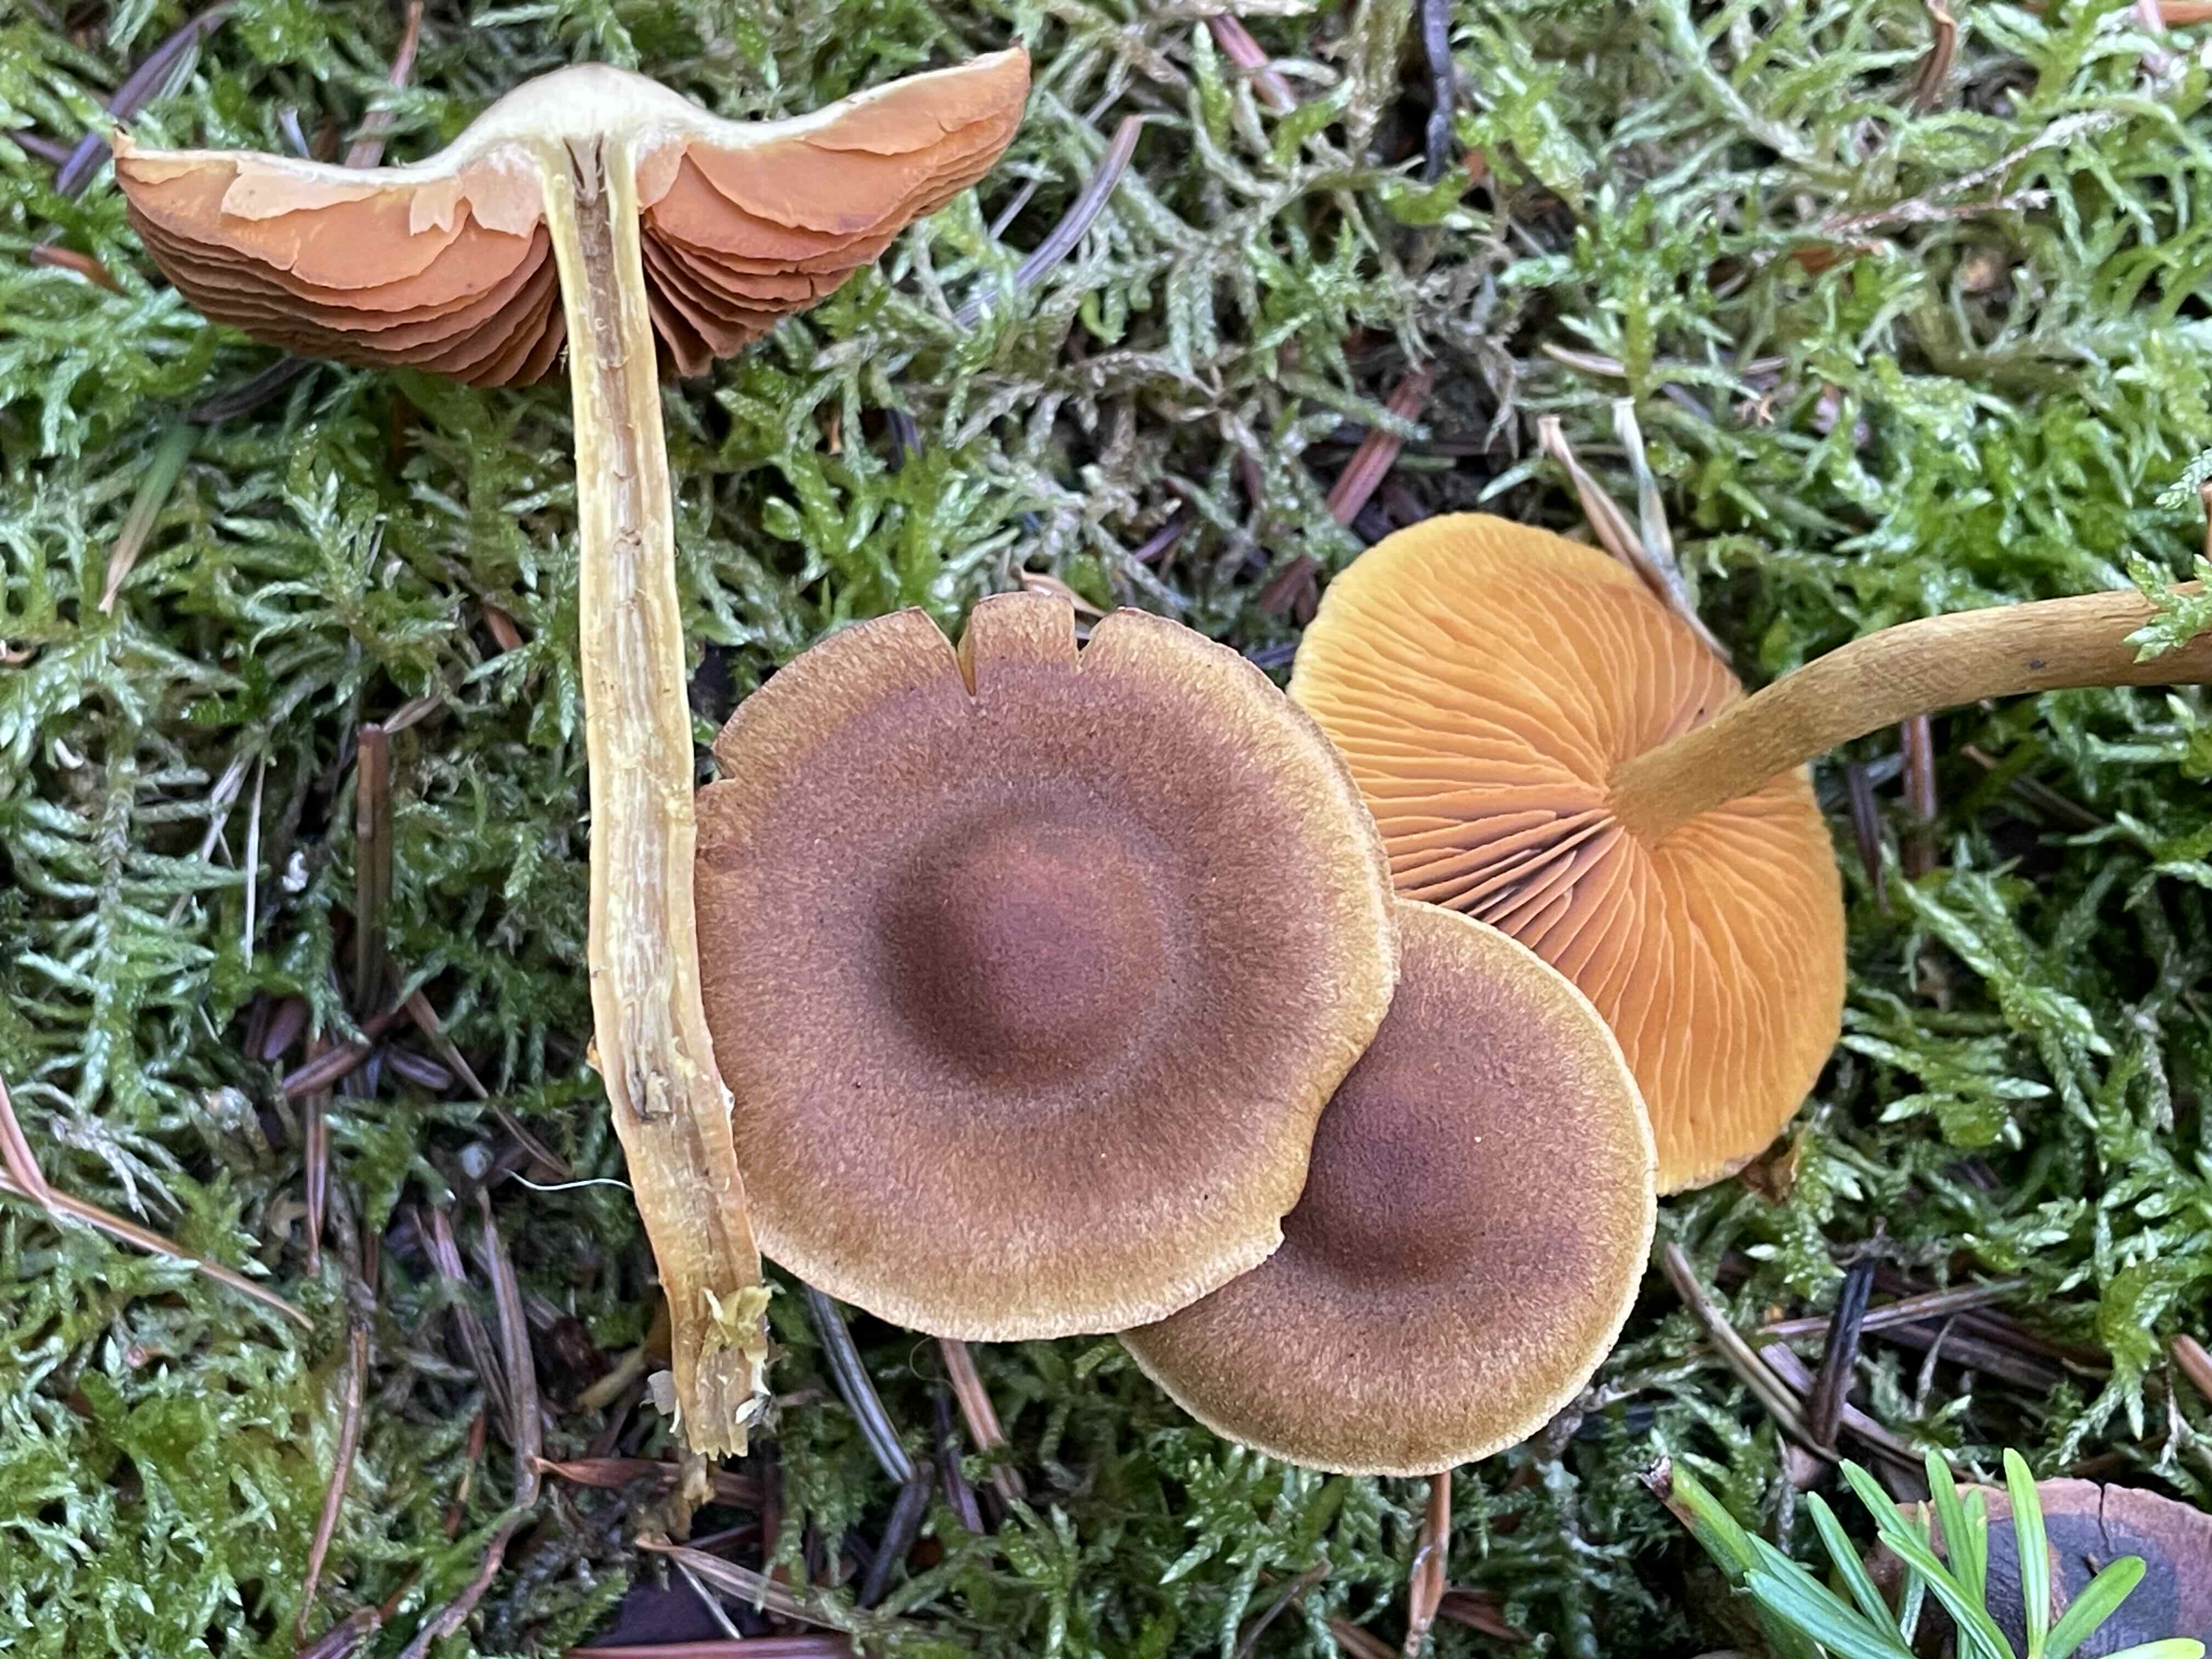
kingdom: Fungi
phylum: Basidiomycota
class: Agaricomycetes
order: Agaricales
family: Cortinariaceae
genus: Cortinarius
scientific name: Cortinarius
